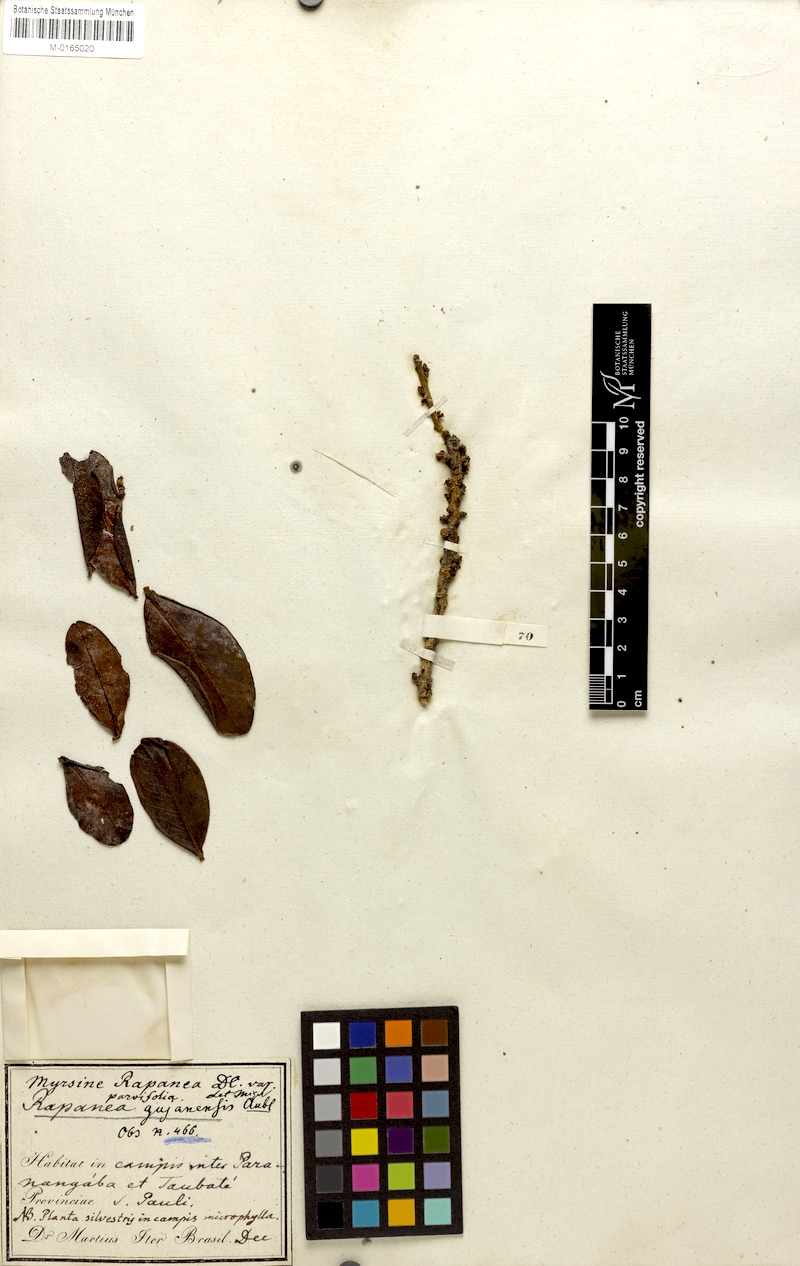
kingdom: Plantae
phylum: Tracheophyta
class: Magnoliopsida
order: Ericales
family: Primulaceae
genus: Myrsine
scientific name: Myrsine guianensis
